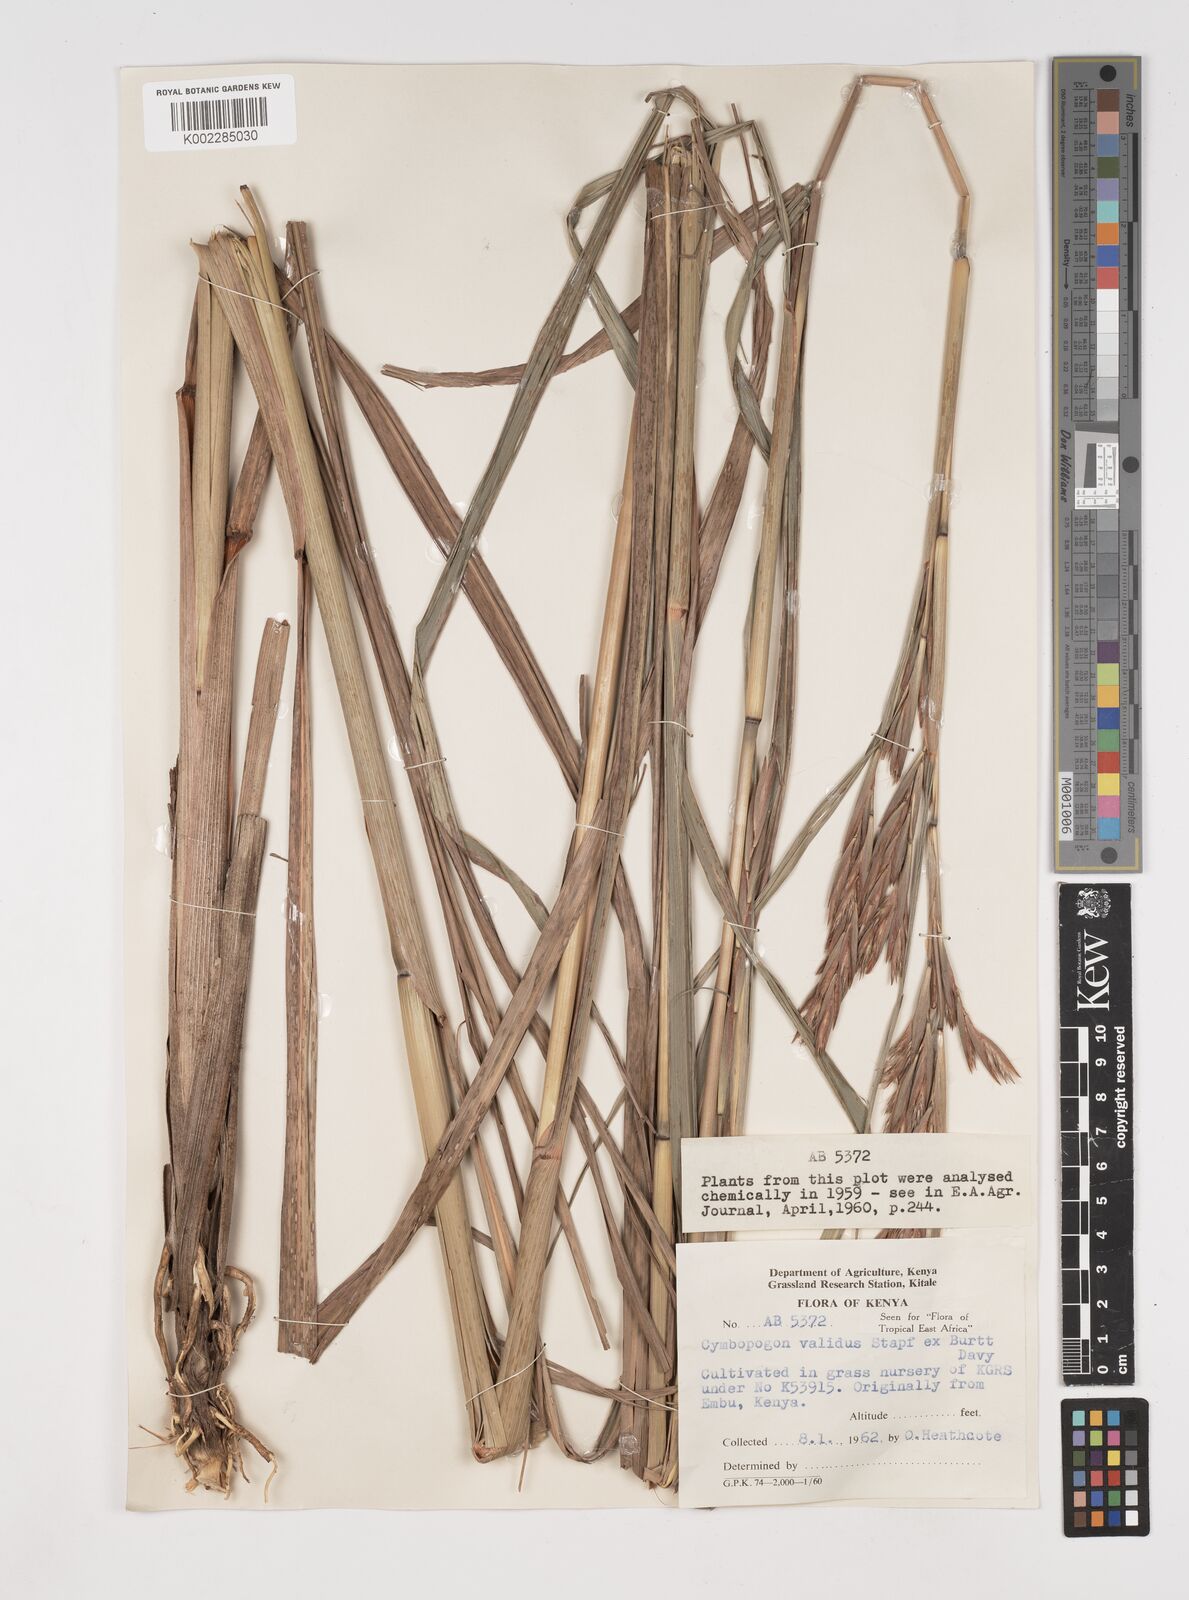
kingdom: Plantae
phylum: Tracheophyta
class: Liliopsida
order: Poales
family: Poaceae
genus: Cymbopogon
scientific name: Cymbopogon
